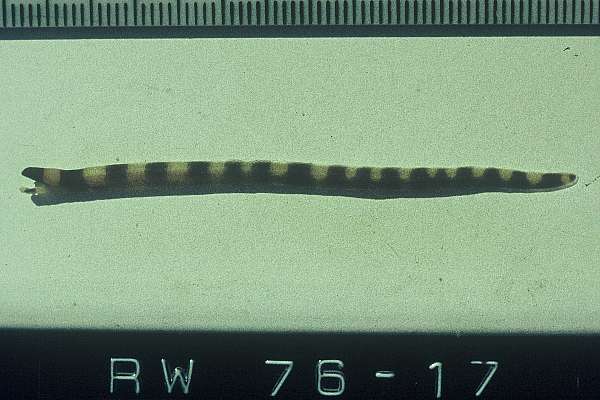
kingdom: Animalia
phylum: Chordata
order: Anguilliformes
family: Muraenidae
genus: Gymnothorax
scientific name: Gymnothorax rueppelliae
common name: Banded moray
